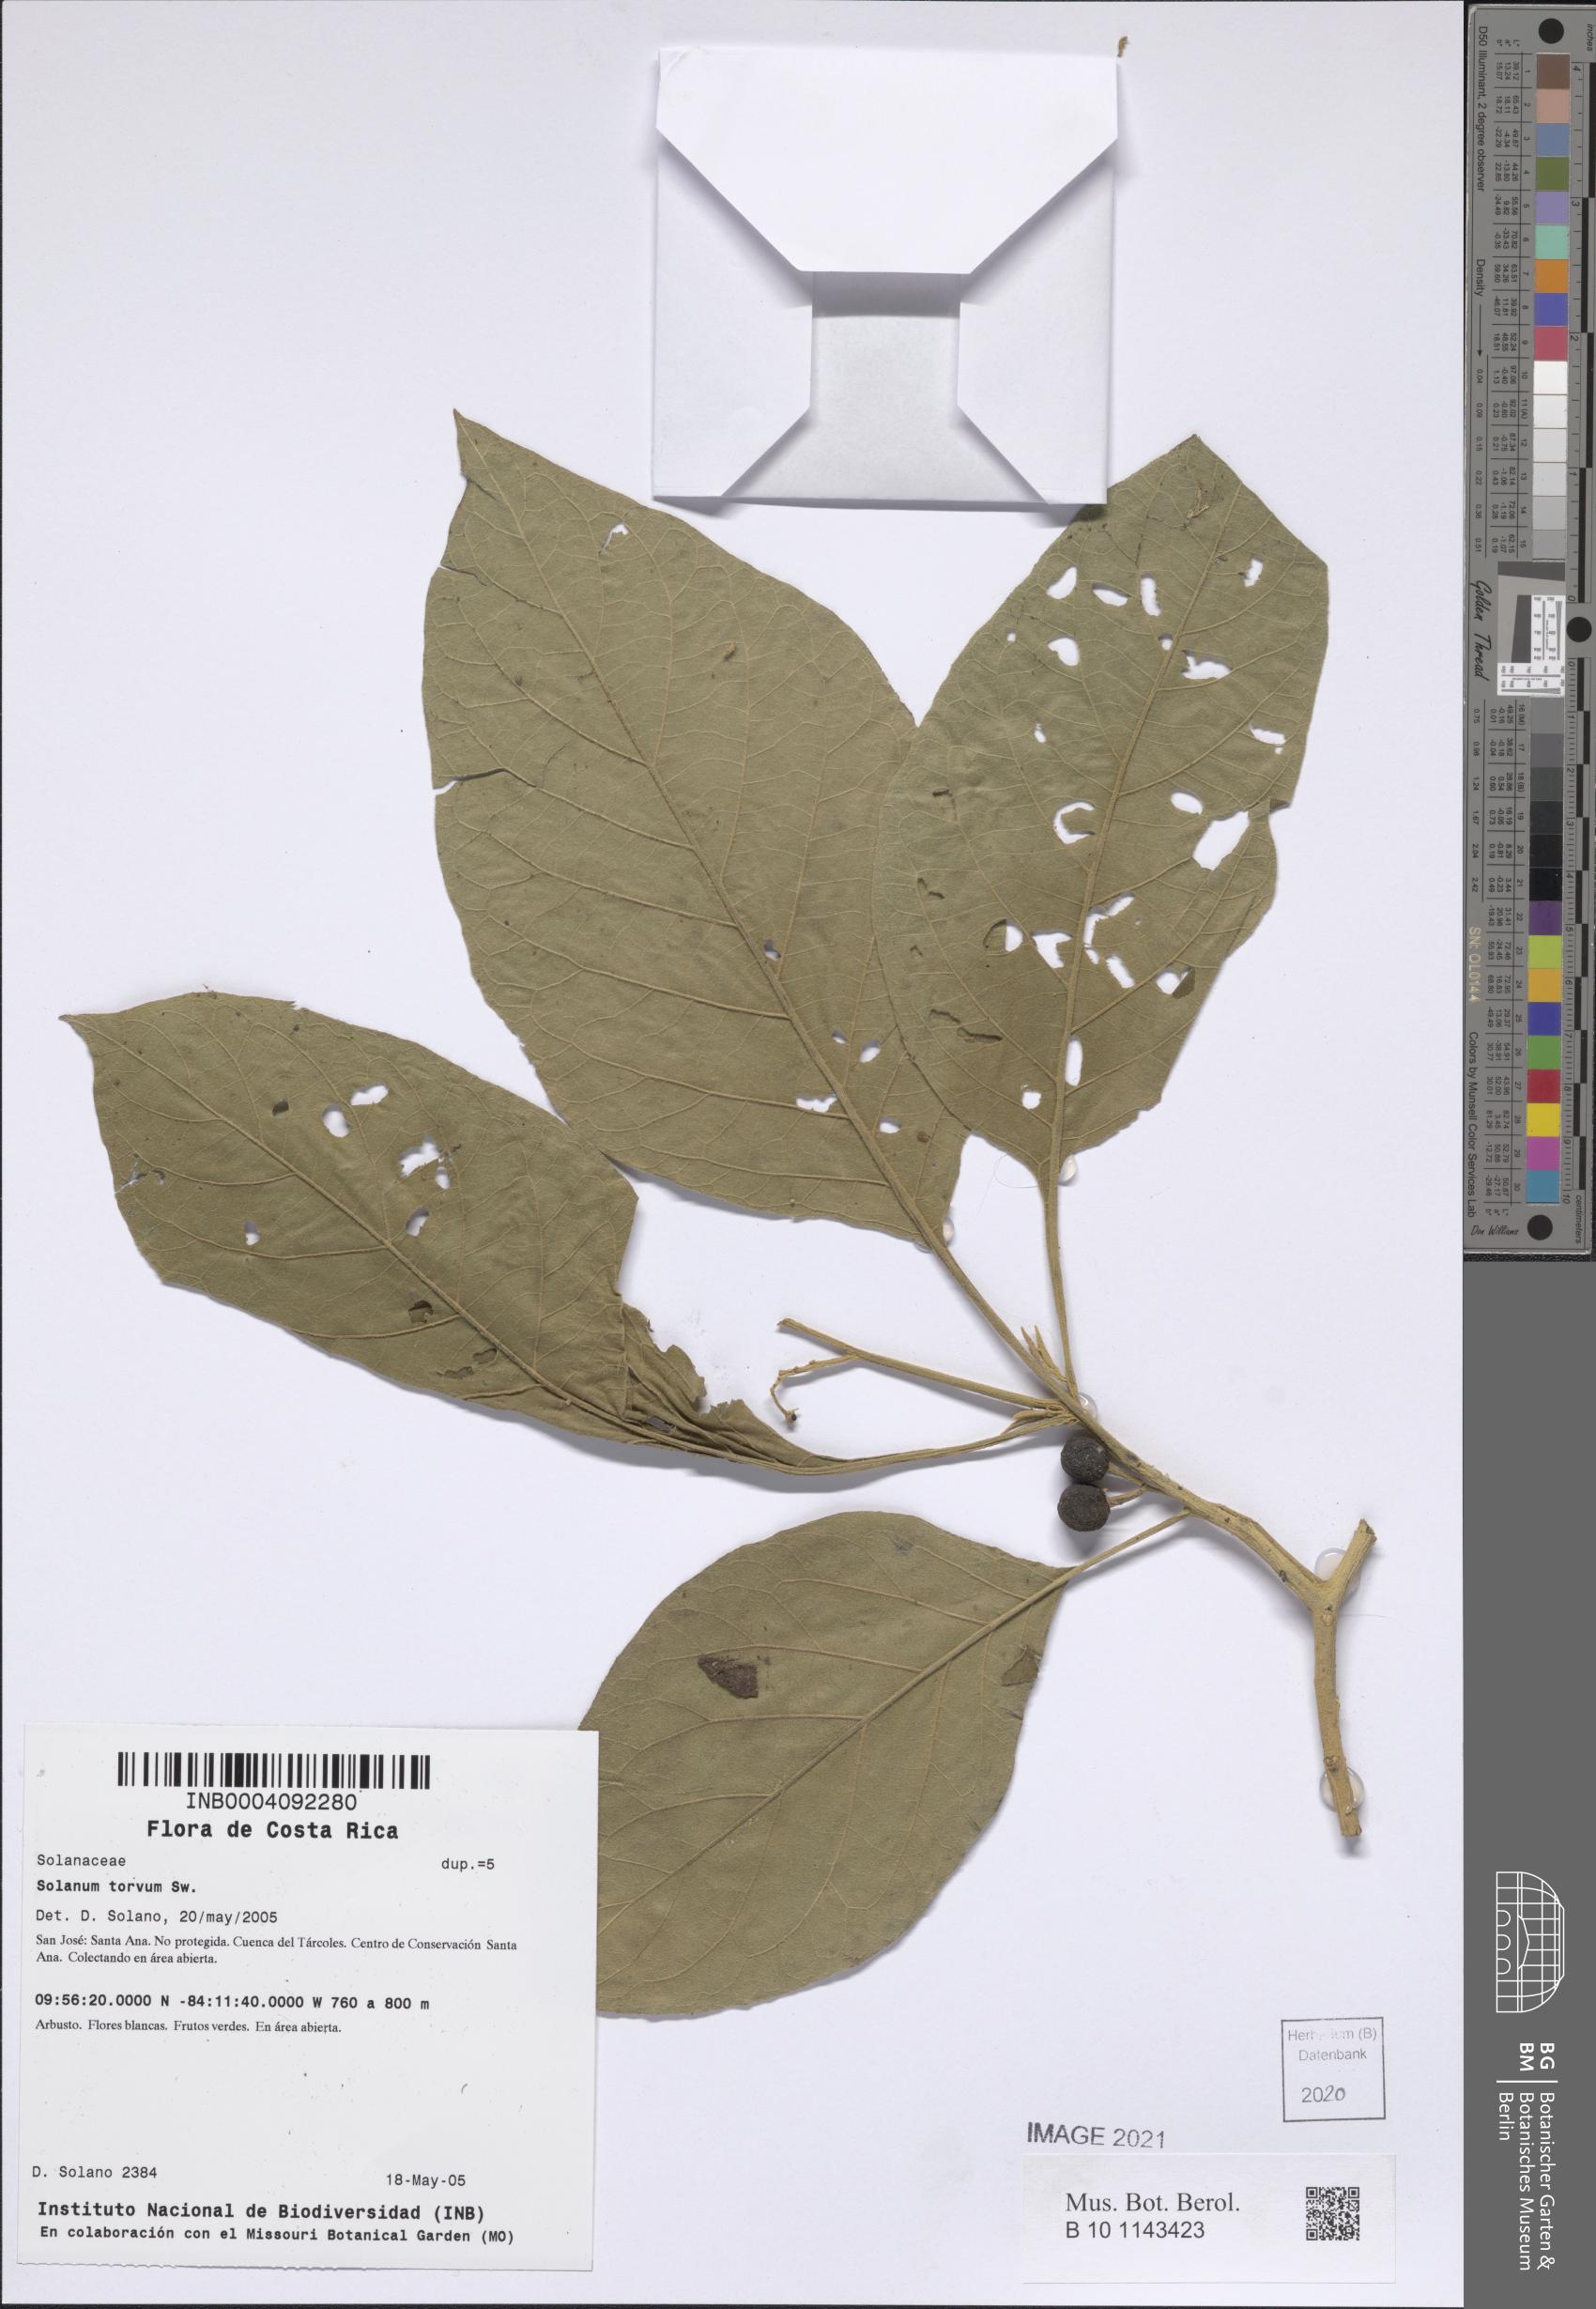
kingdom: Plantae
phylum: Tracheophyta
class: Magnoliopsida
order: Solanales
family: Solanaceae
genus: Solanum
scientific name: Solanum torvum
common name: Turkey berry
